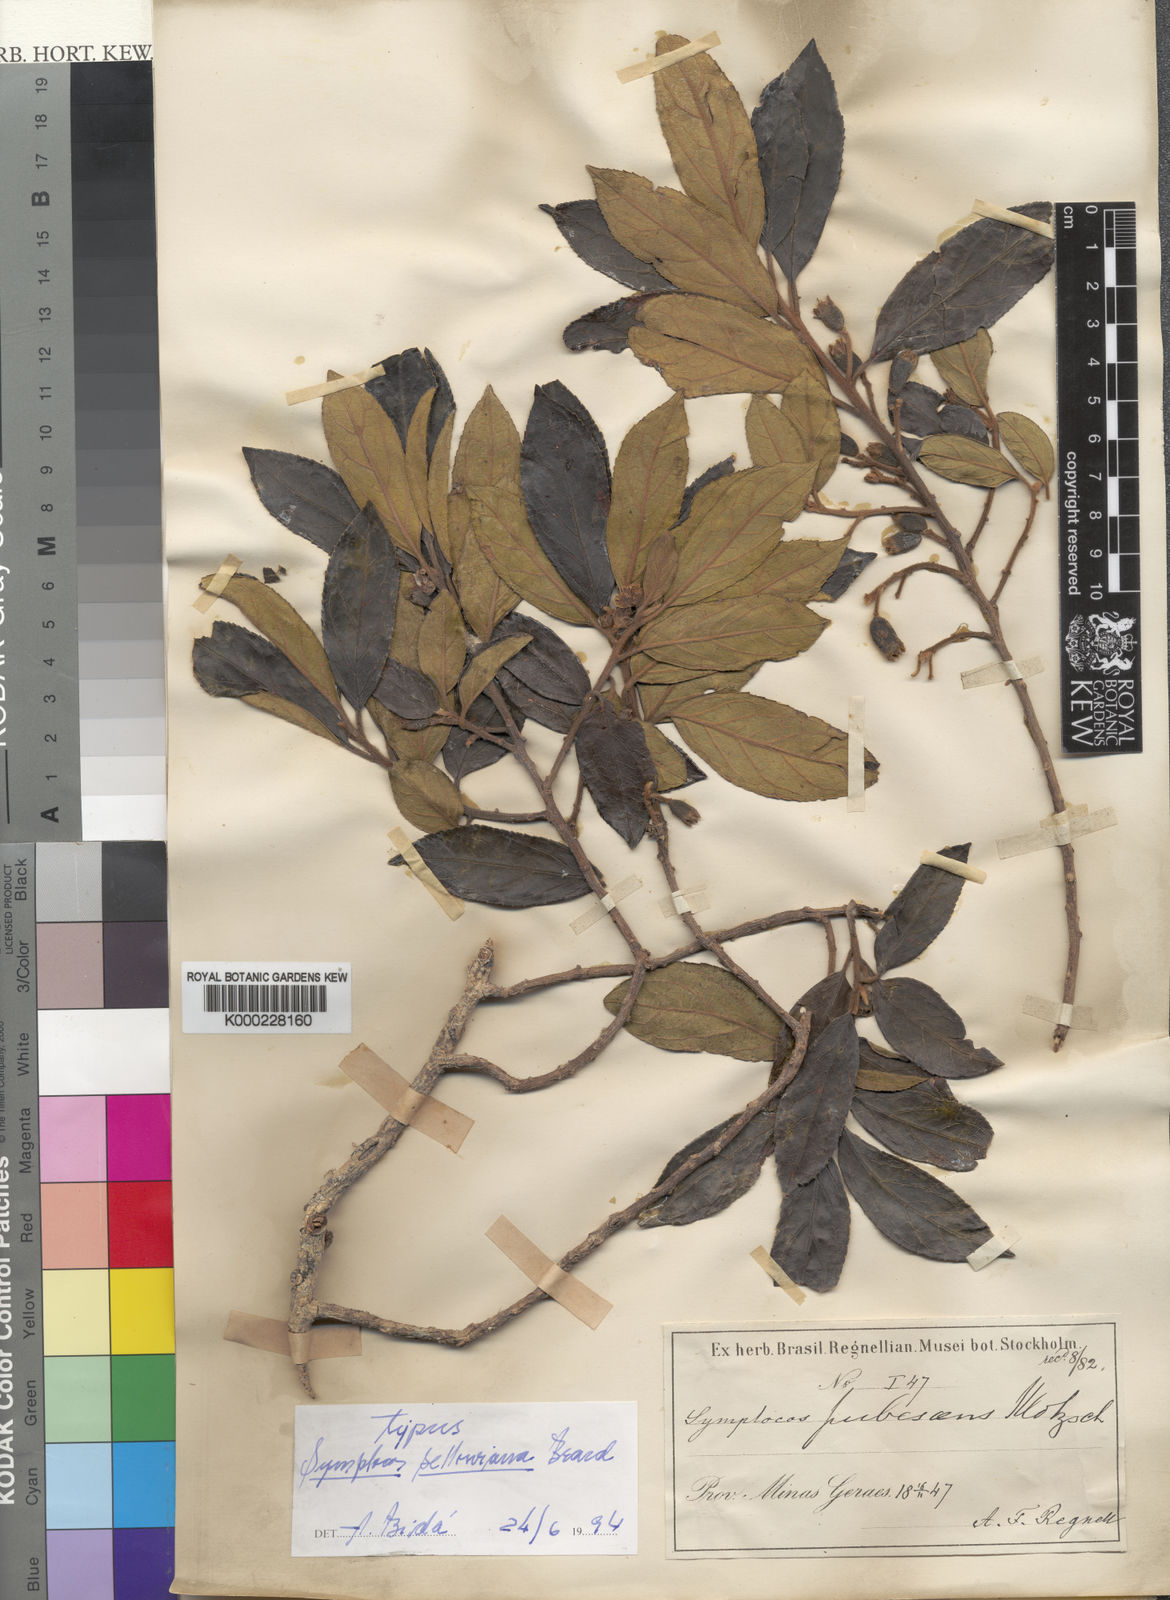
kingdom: Plantae
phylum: Tracheophyta
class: Magnoliopsida
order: Ericales
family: Symplocaceae
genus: Symplocos
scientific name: Symplocos platyphylla
